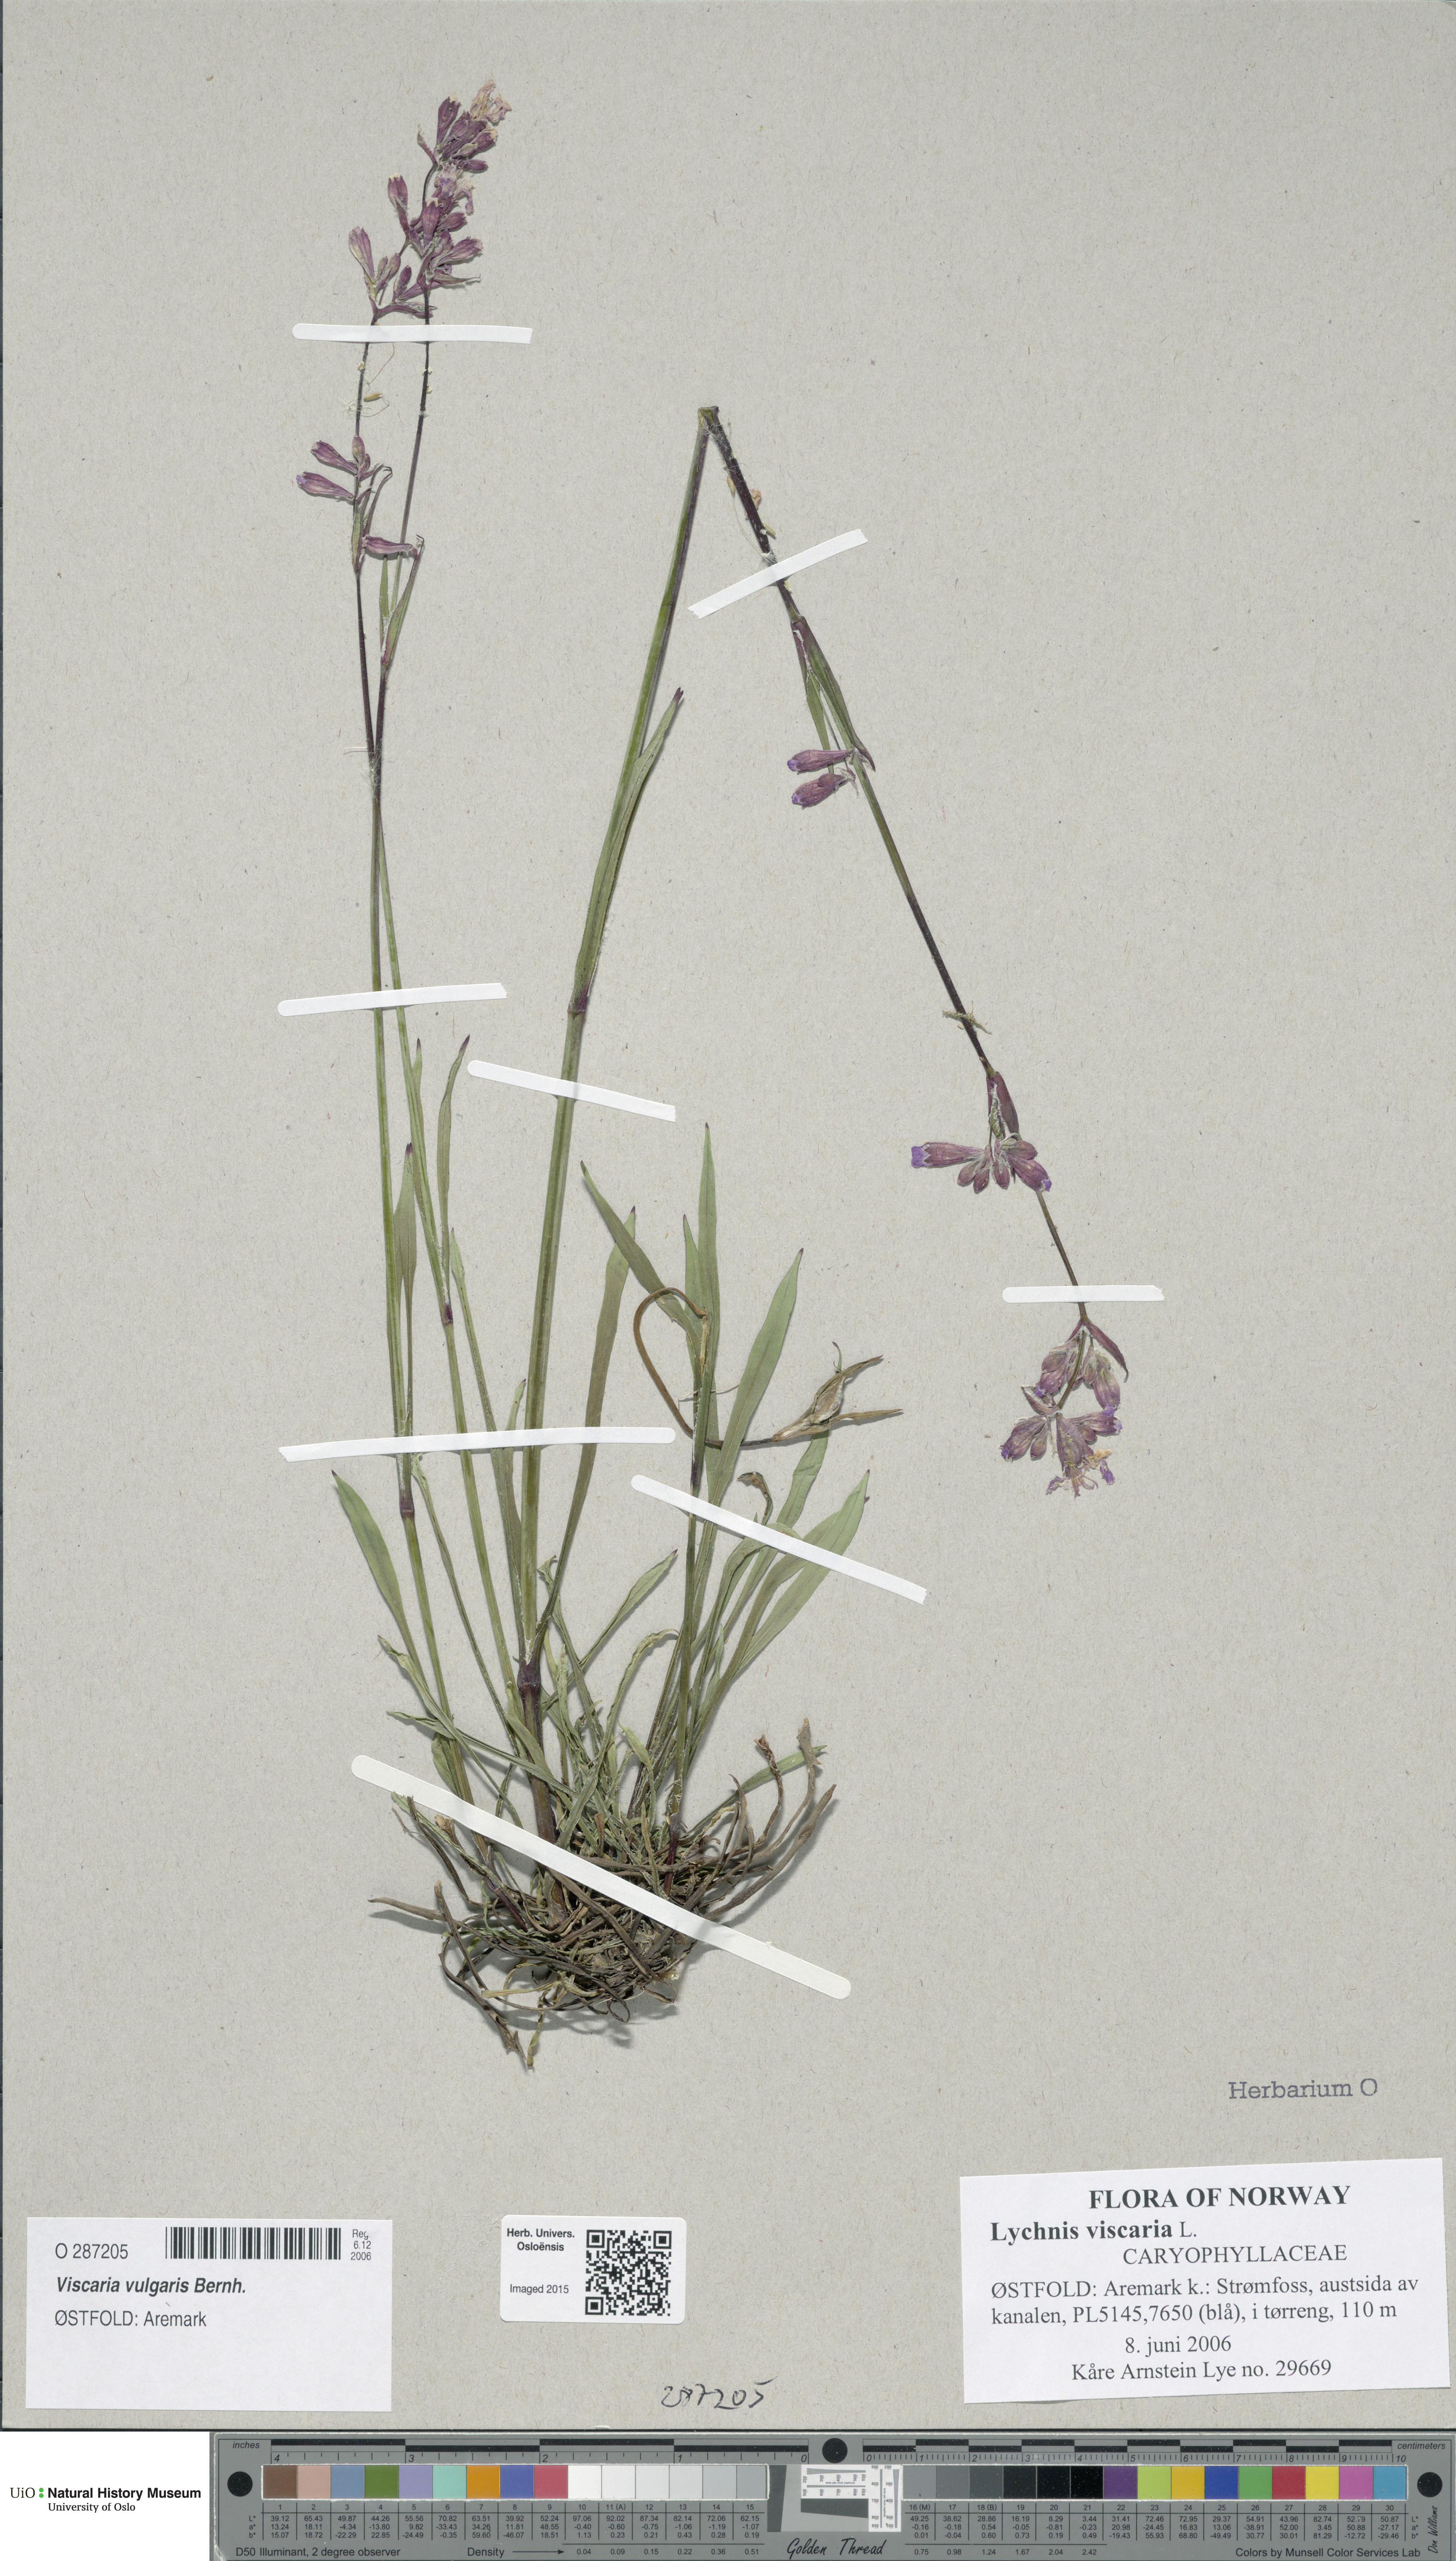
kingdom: Plantae
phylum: Tracheophyta
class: Magnoliopsida
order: Caryophyllales
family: Caryophyllaceae
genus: Viscaria
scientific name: Viscaria vulgaris
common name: Clammy campion
